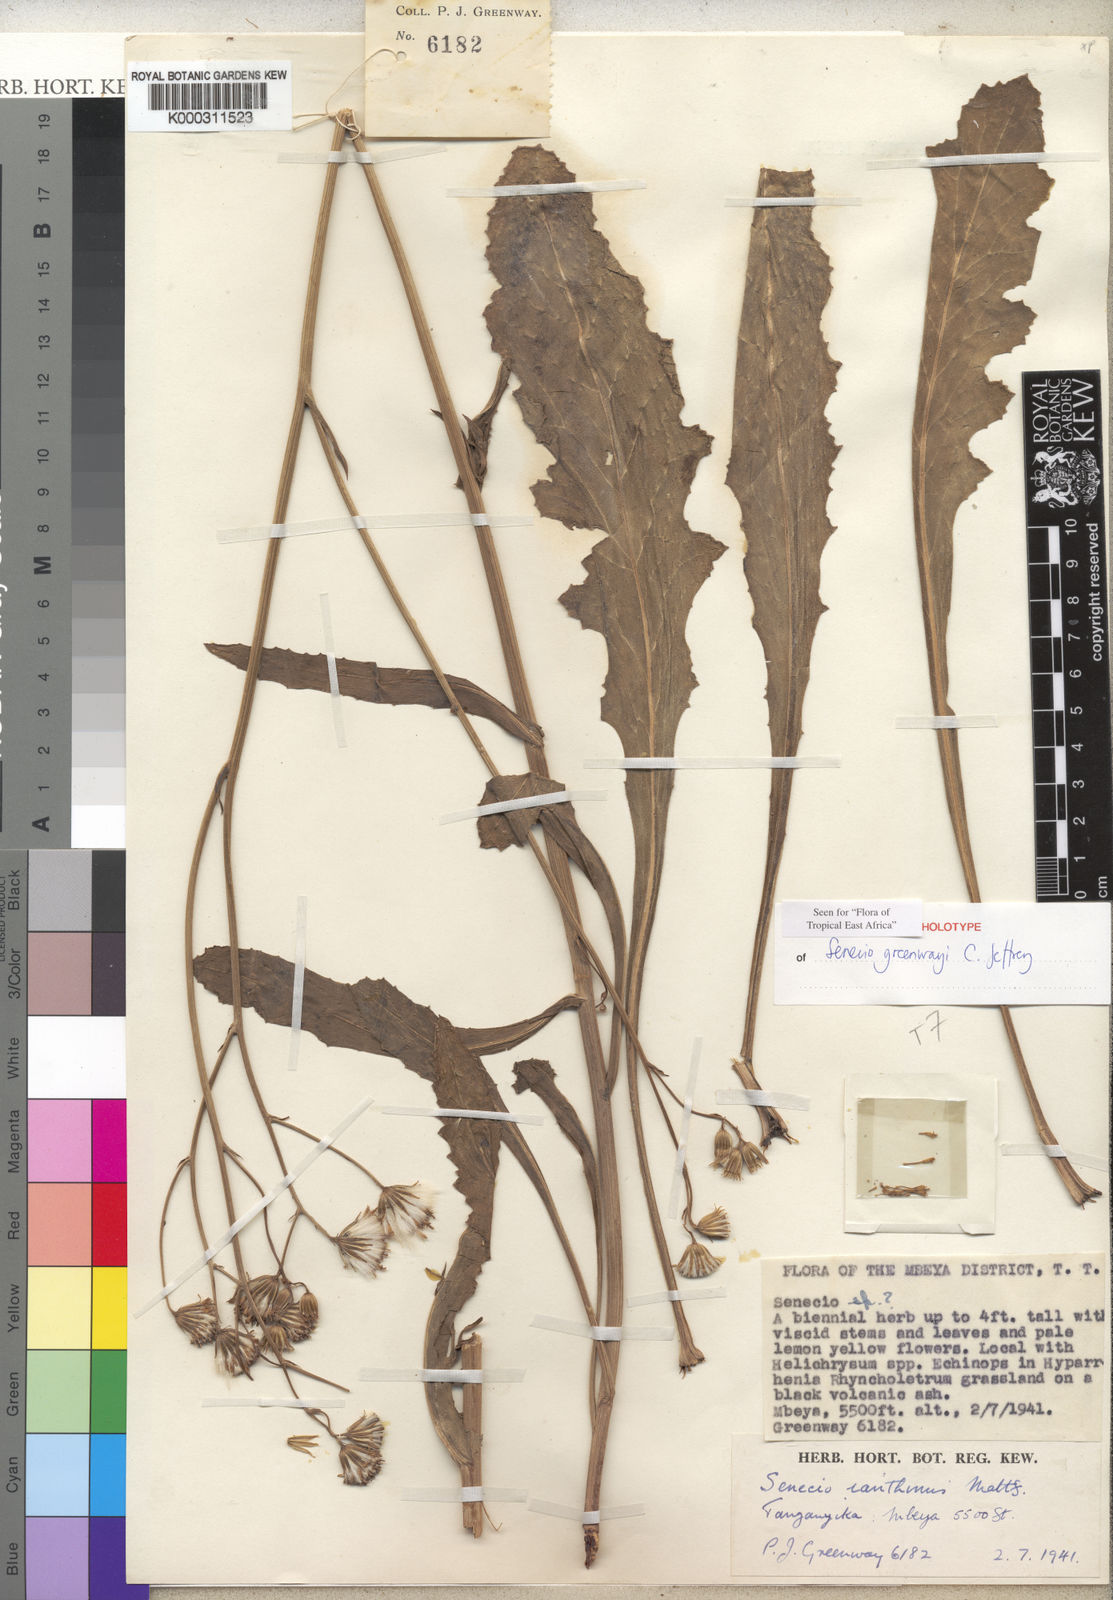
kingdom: Plantae
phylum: Tracheophyta
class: Magnoliopsida
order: Asterales
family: Asteraceae
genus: Senecio
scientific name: Senecio greenwayi
